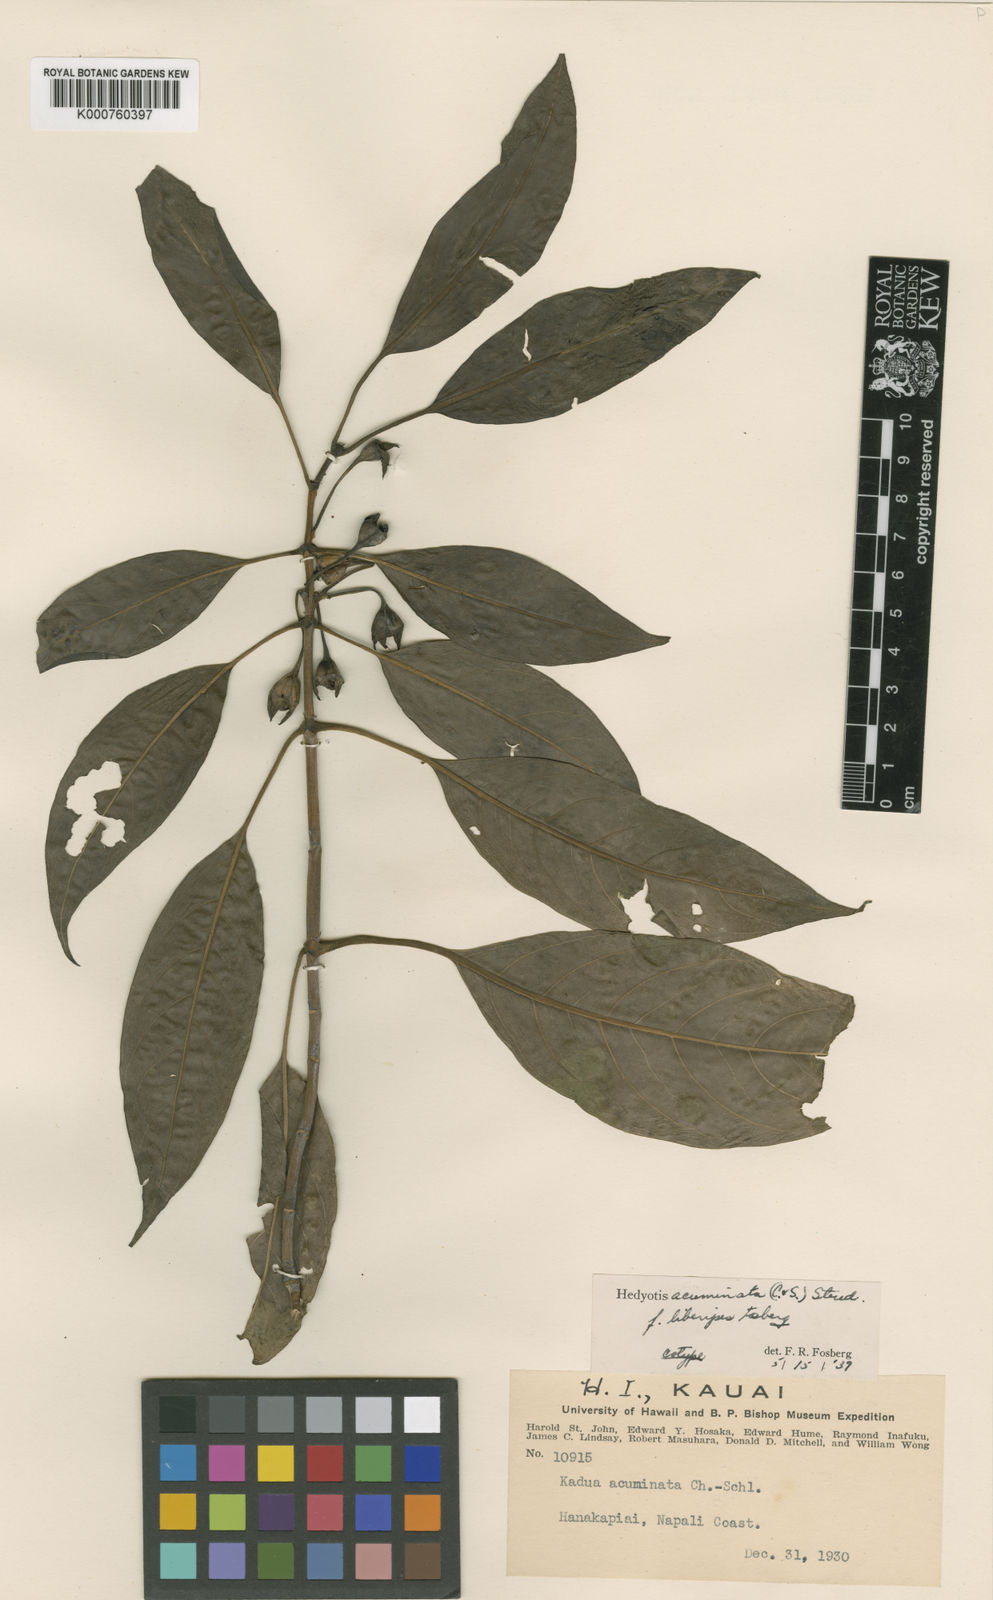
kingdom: Plantae
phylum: Tracheophyta
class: Magnoliopsida
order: Gentianales
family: Rubiaceae
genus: Kadua
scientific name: Kadua acuminata
